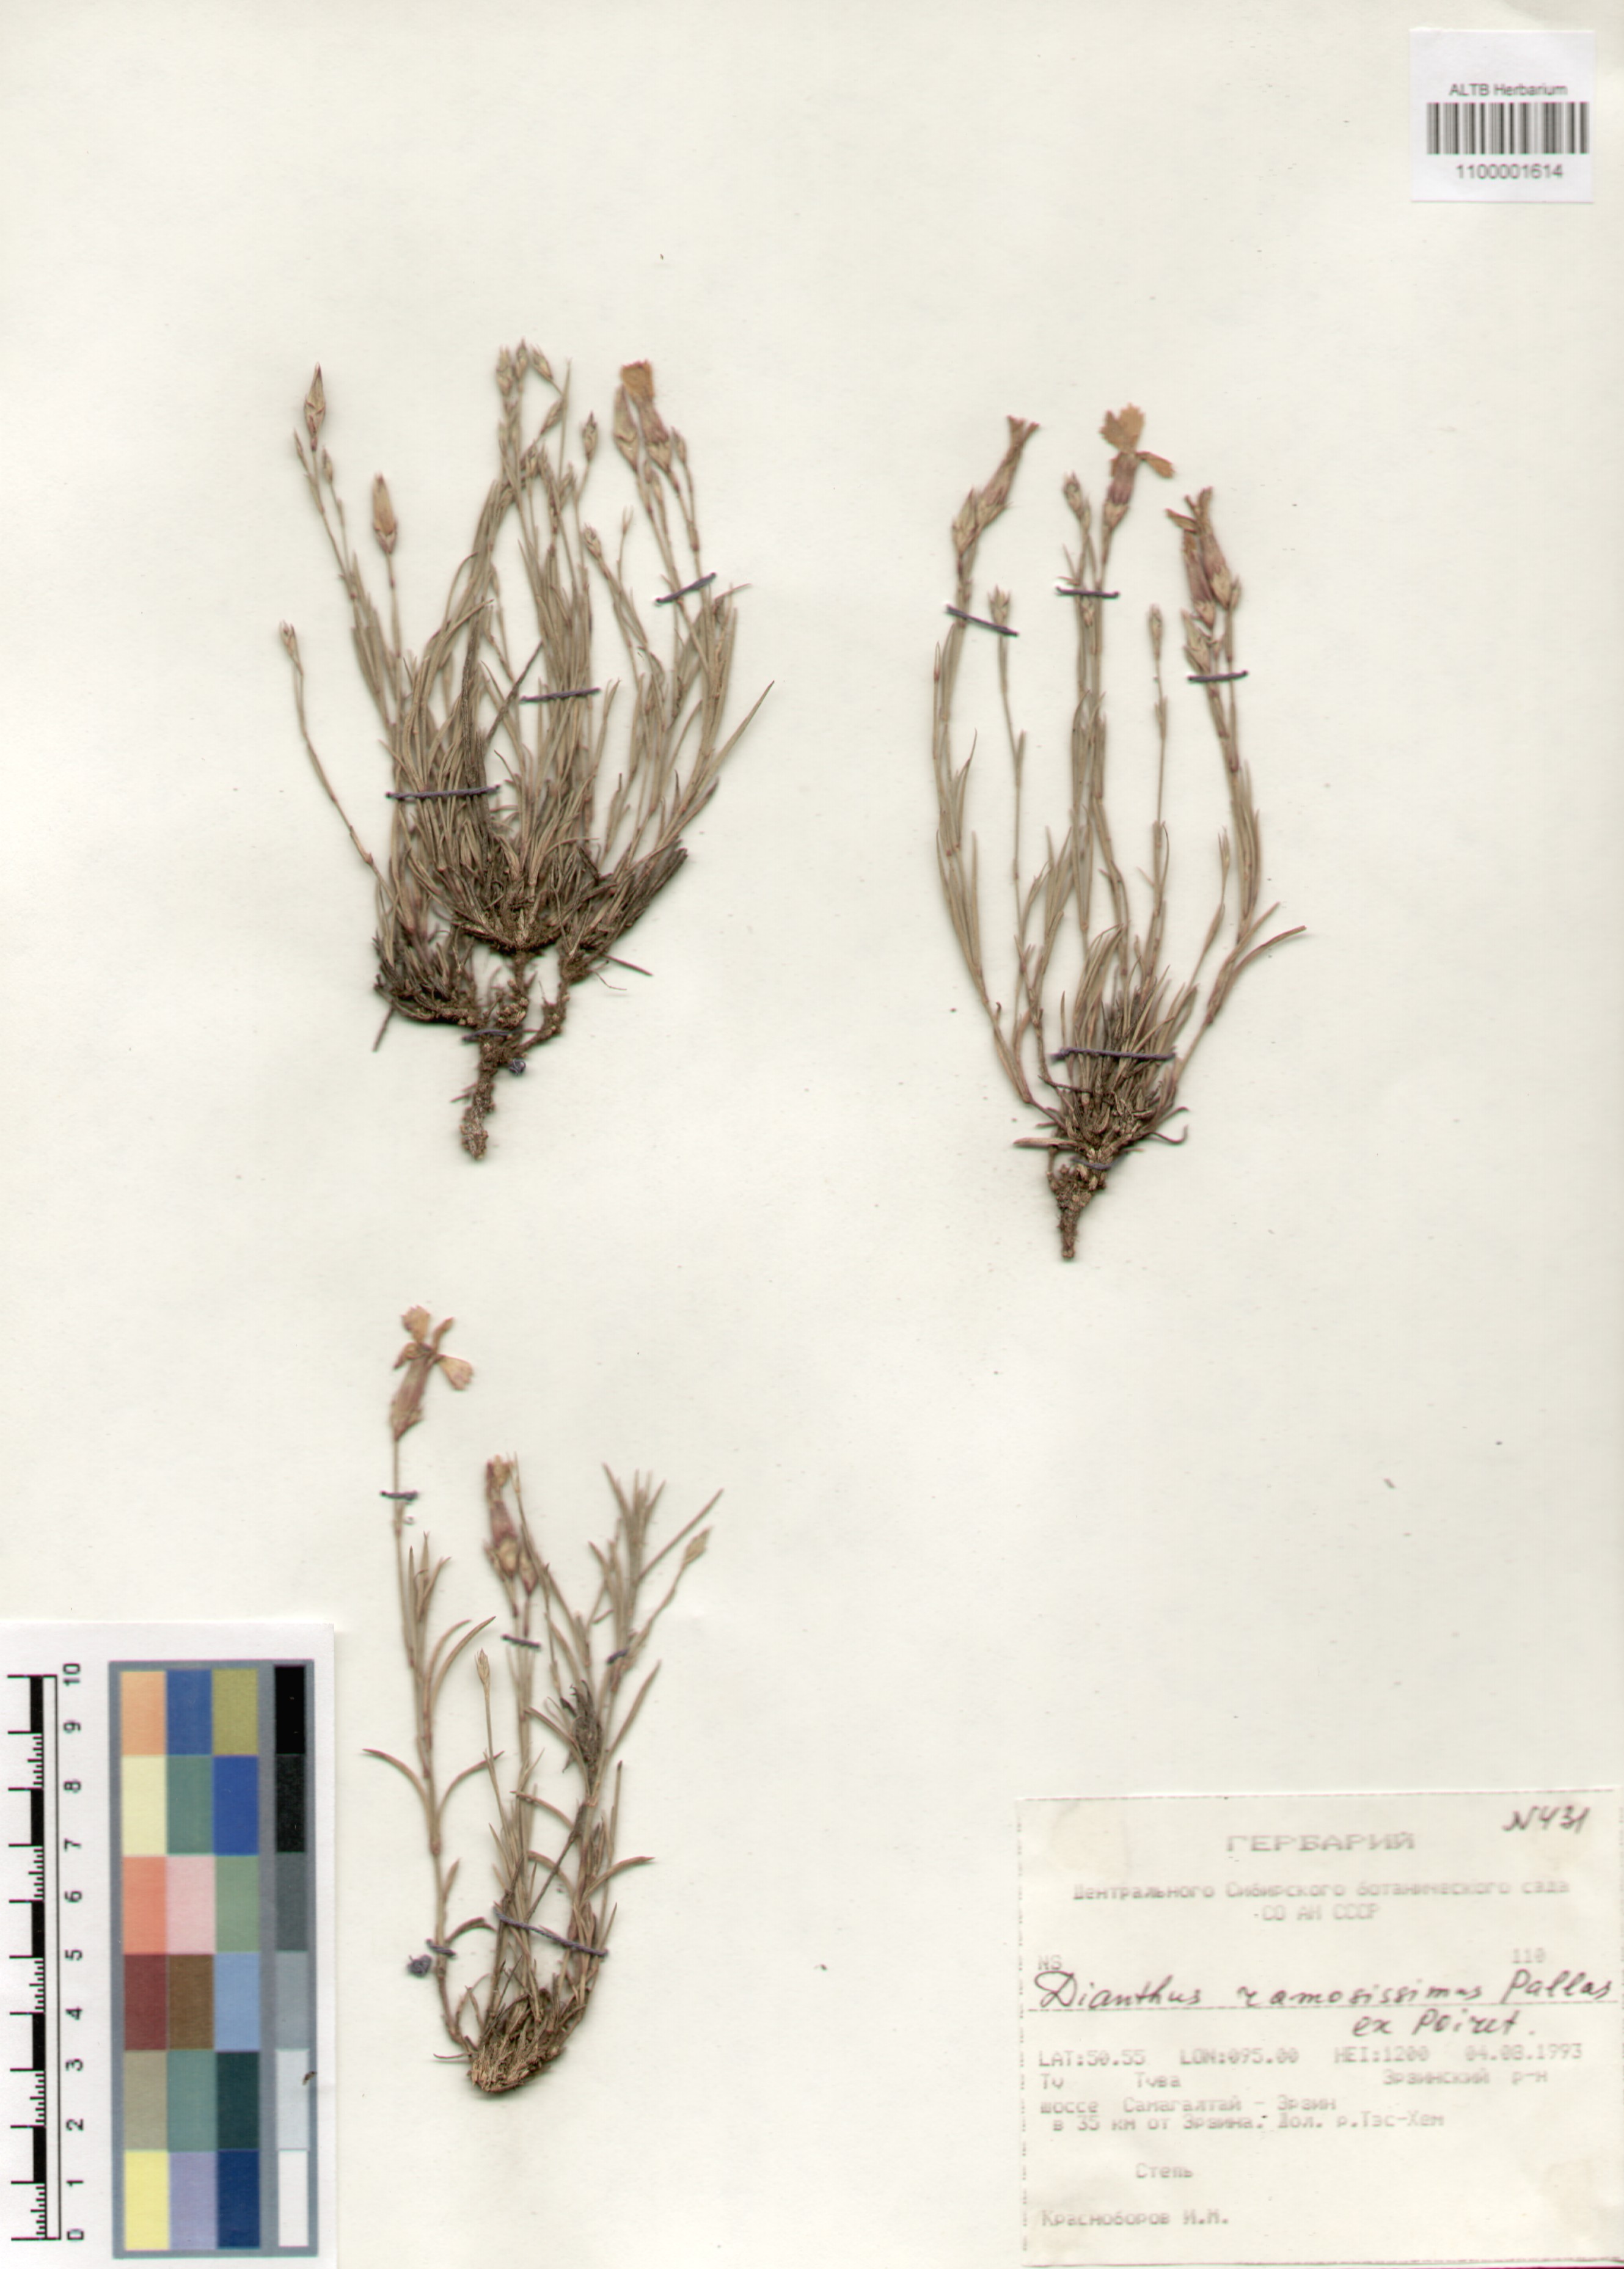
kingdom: Plantae
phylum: Tracheophyta
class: Magnoliopsida
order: Caryophyllales
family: Caryophyllaceae
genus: Dianthus
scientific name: Dianthus ramosissimus
